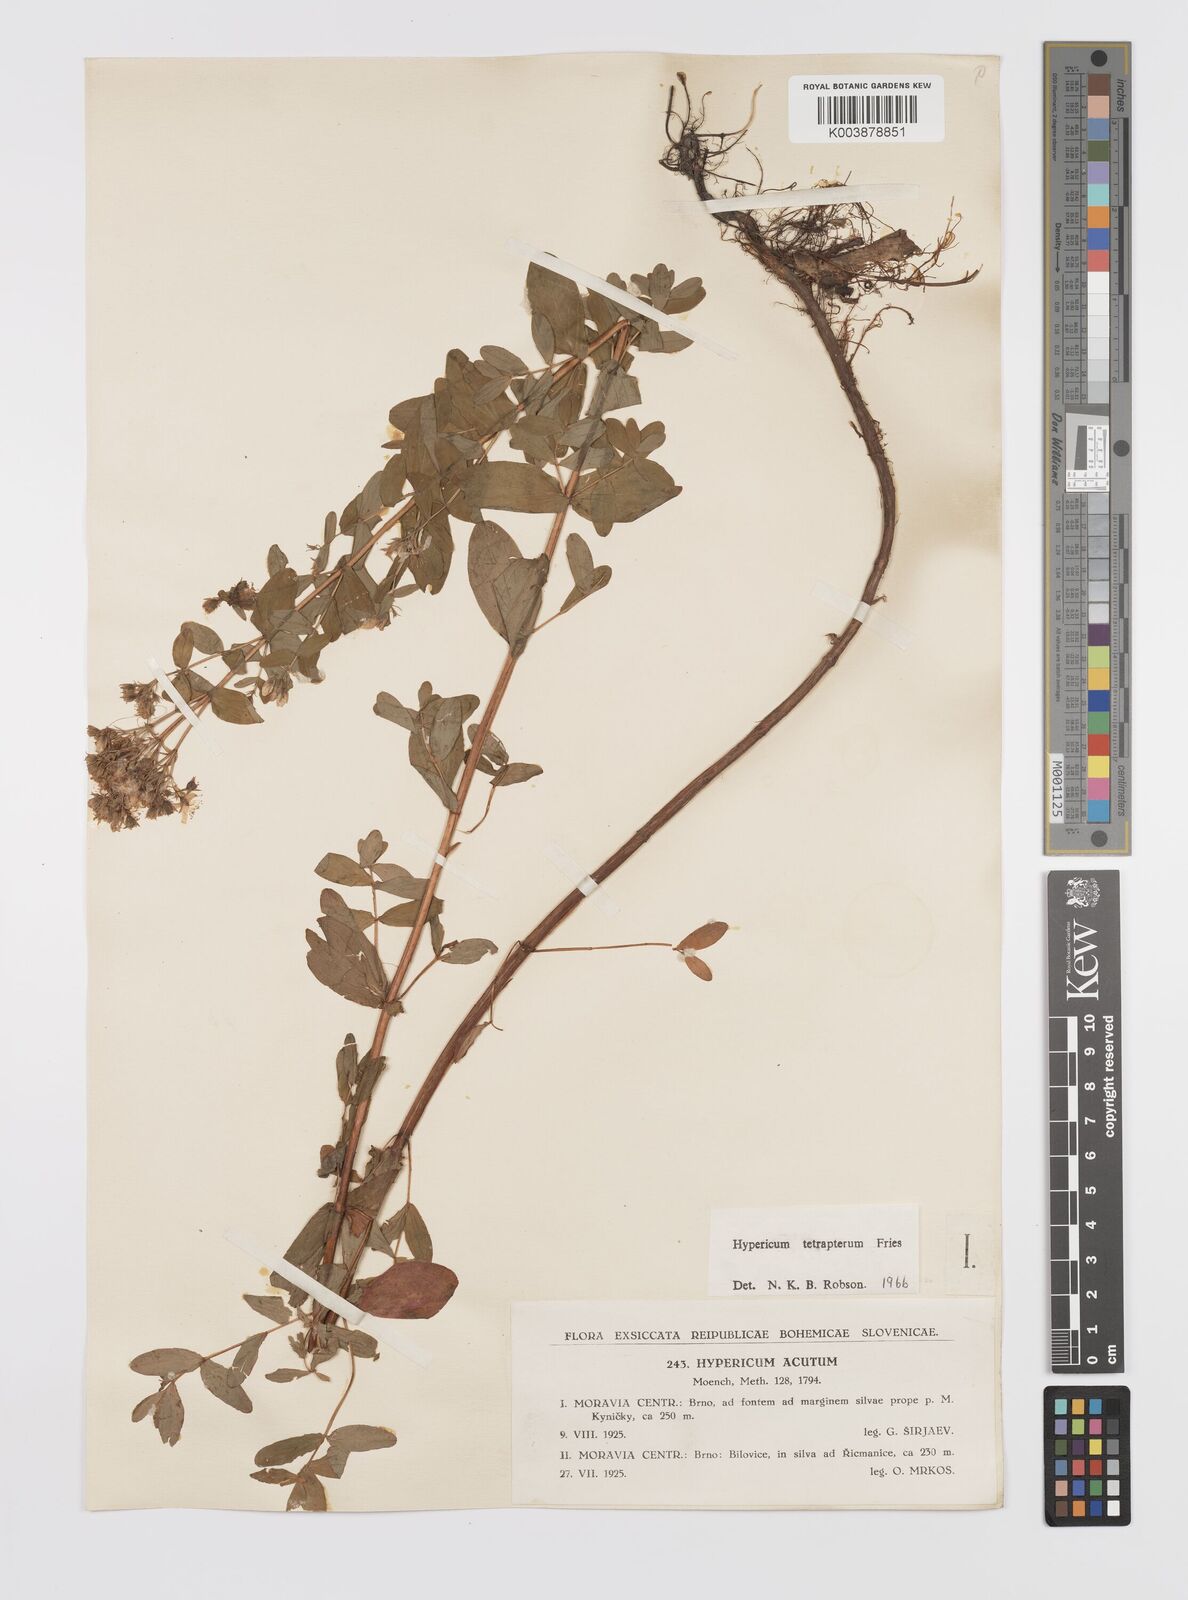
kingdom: Plantae
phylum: Tracheophyta
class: Magnoliopsida
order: Malpighiales
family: Hypericaceae
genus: Hypericum
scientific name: Hypericum tetrapterum
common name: Square-stalked st. john's-wort
